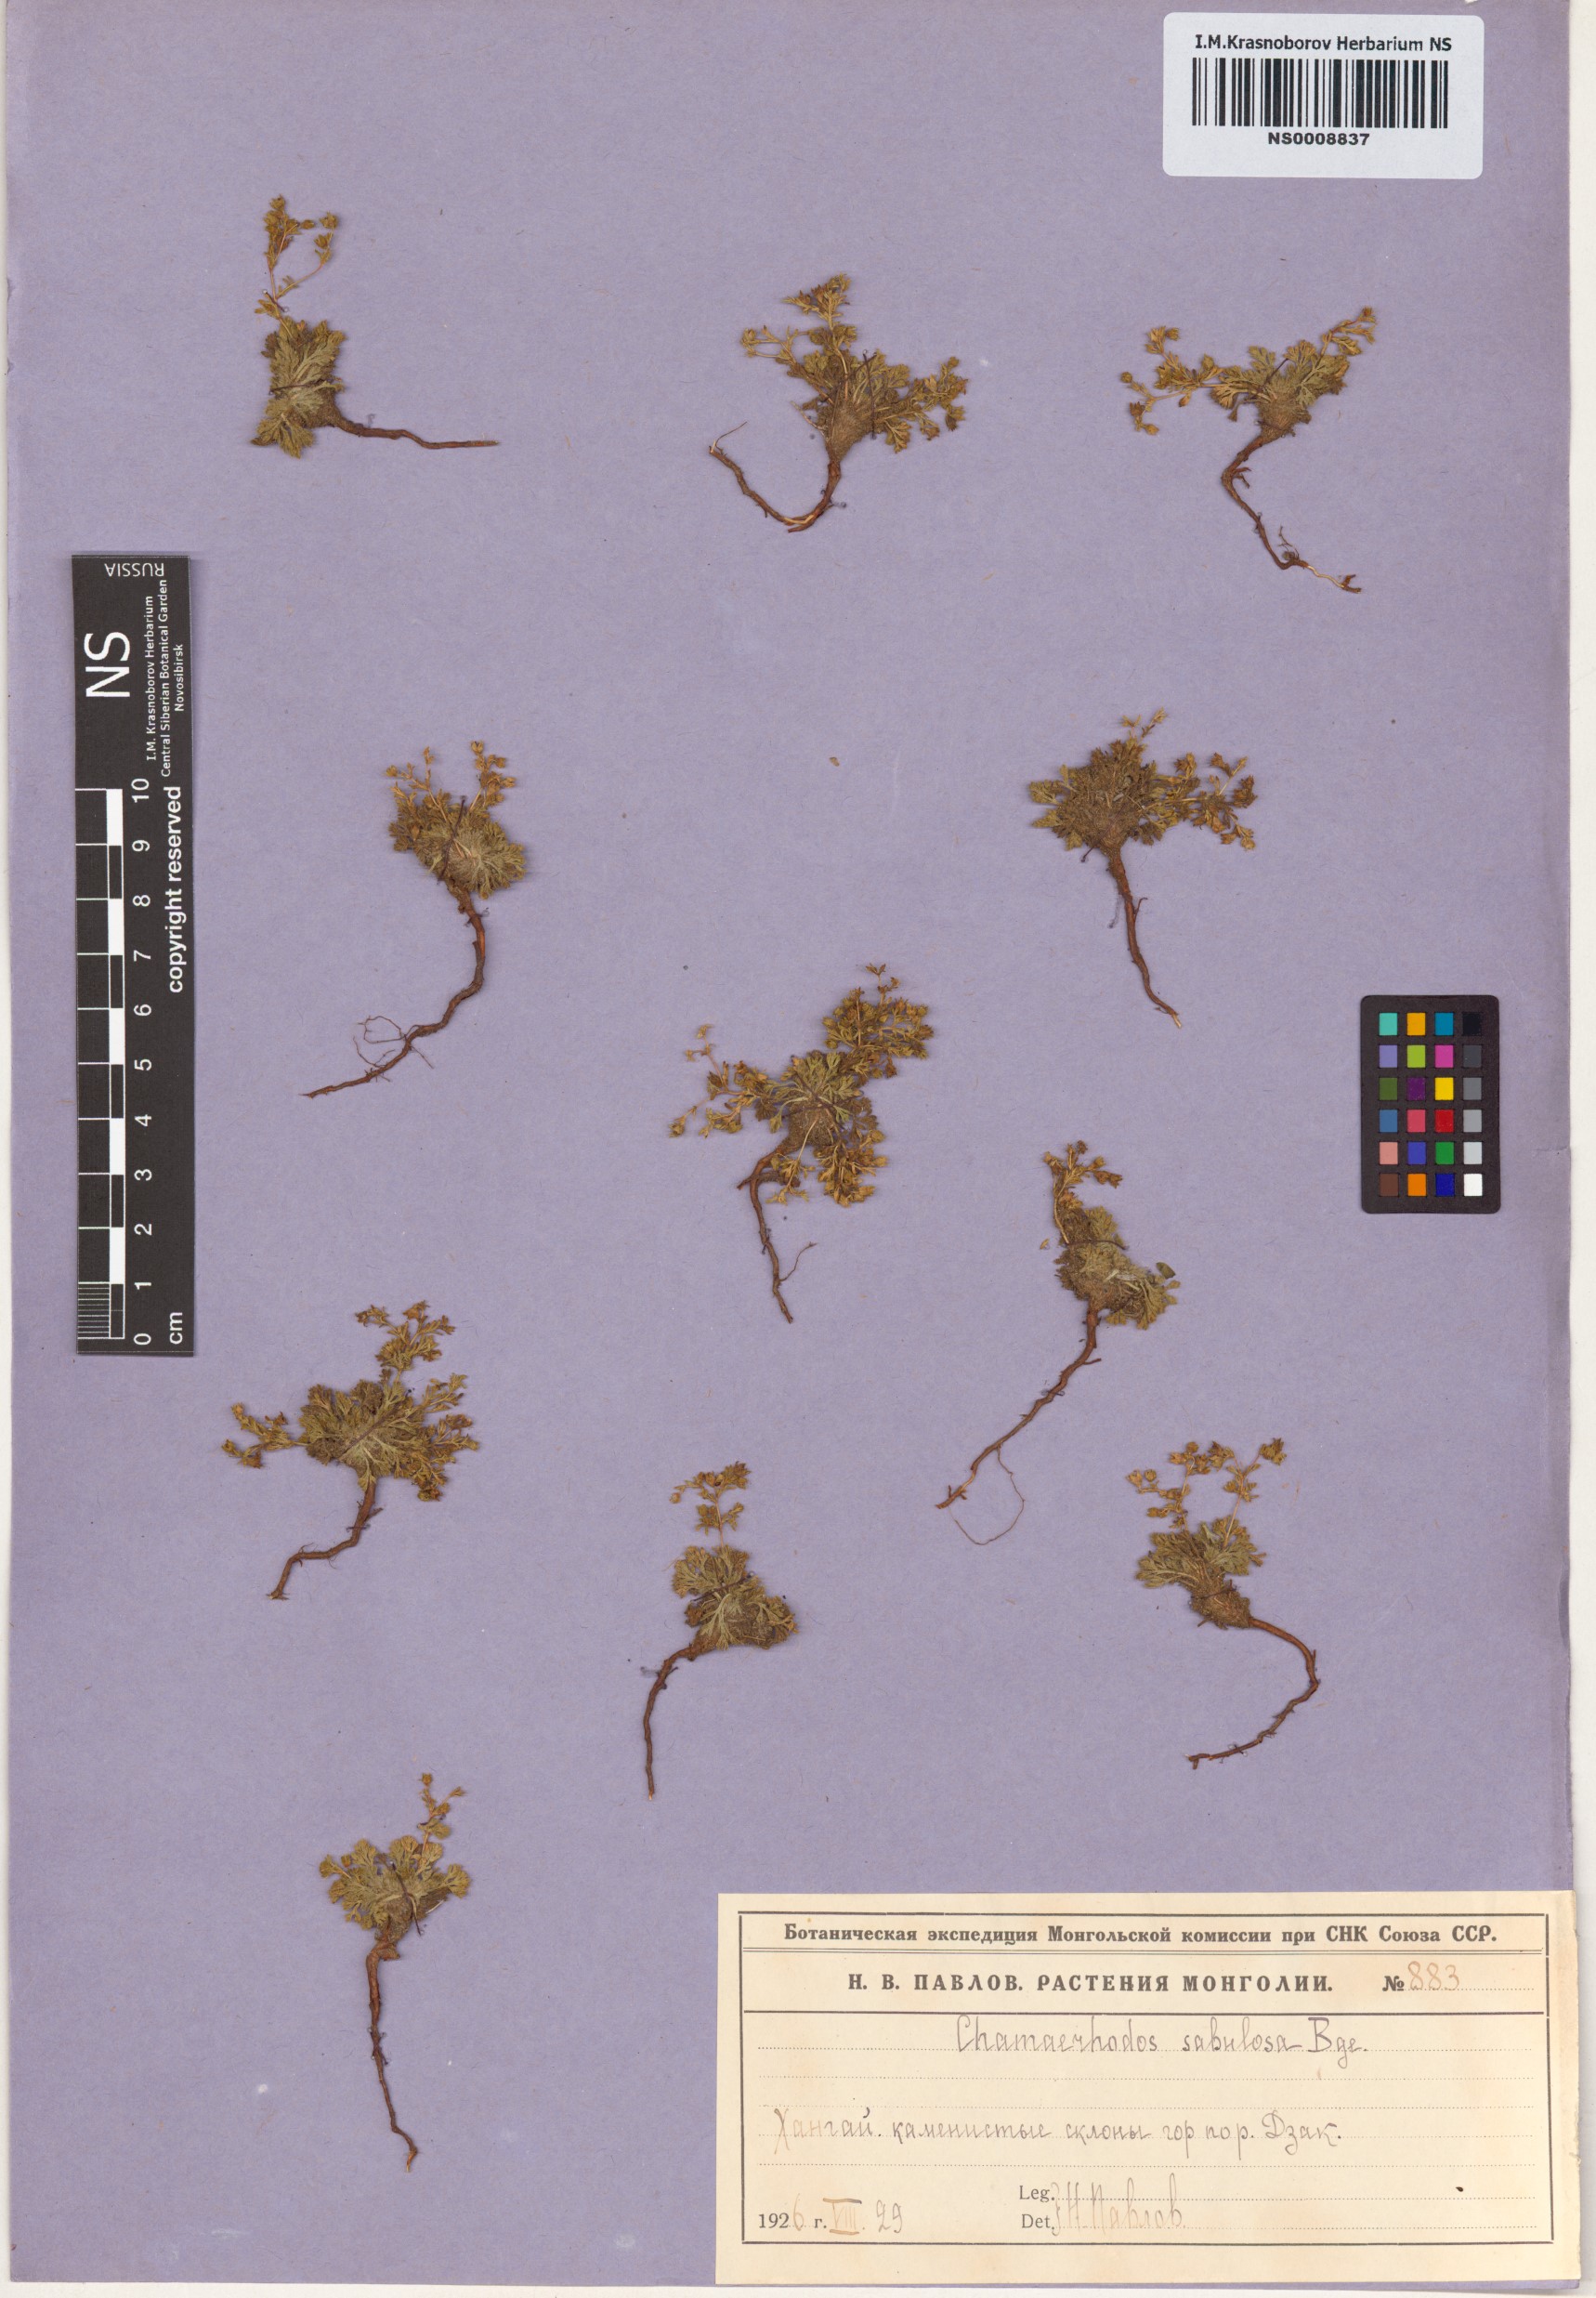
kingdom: Plantae
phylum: Tracheophyta
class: Magnoliopsida
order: Rosales
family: Rosaceae
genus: Chamaerhodos
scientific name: Chamaerhodos sabulosa
